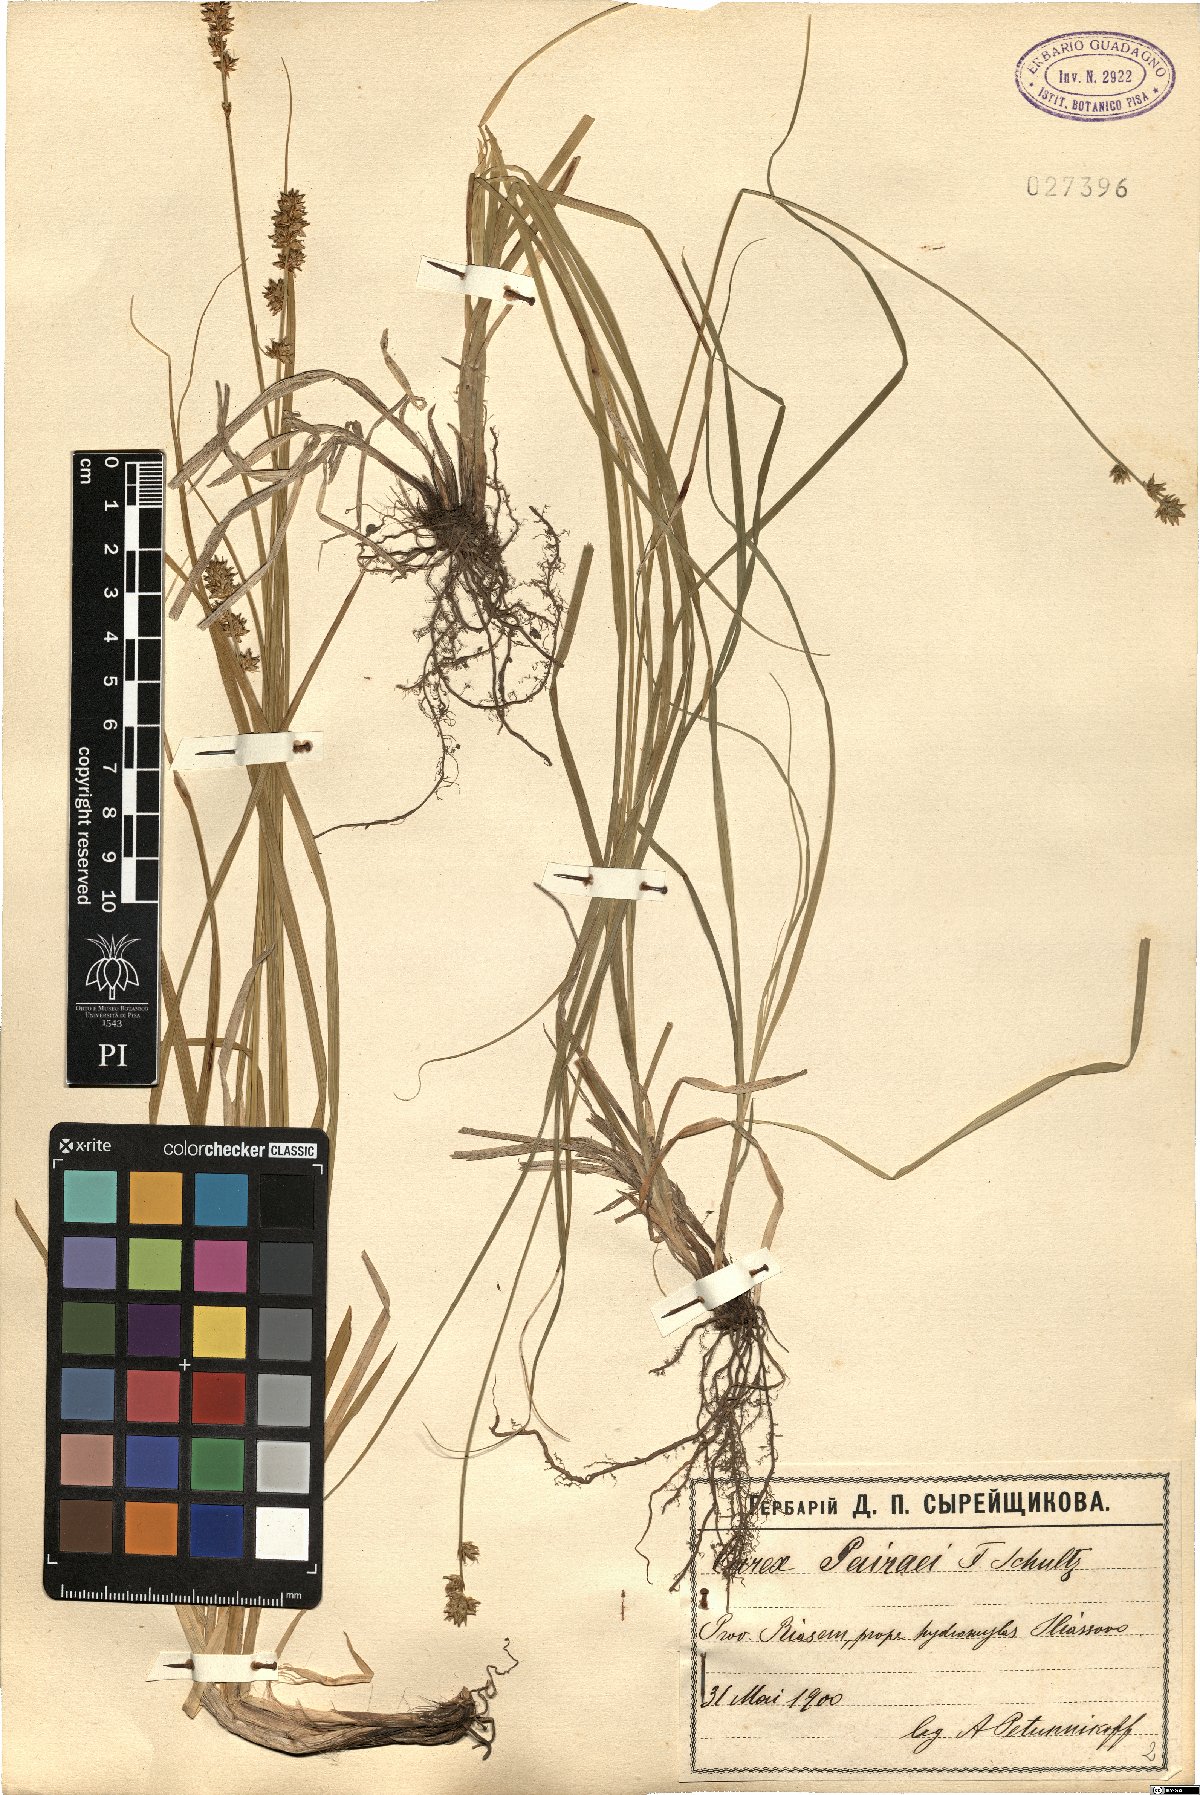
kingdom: Plantae
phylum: Tracheophyta
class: Liliopsida
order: Poales
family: Cyperaceae
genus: Carex
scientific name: Carex pairae
